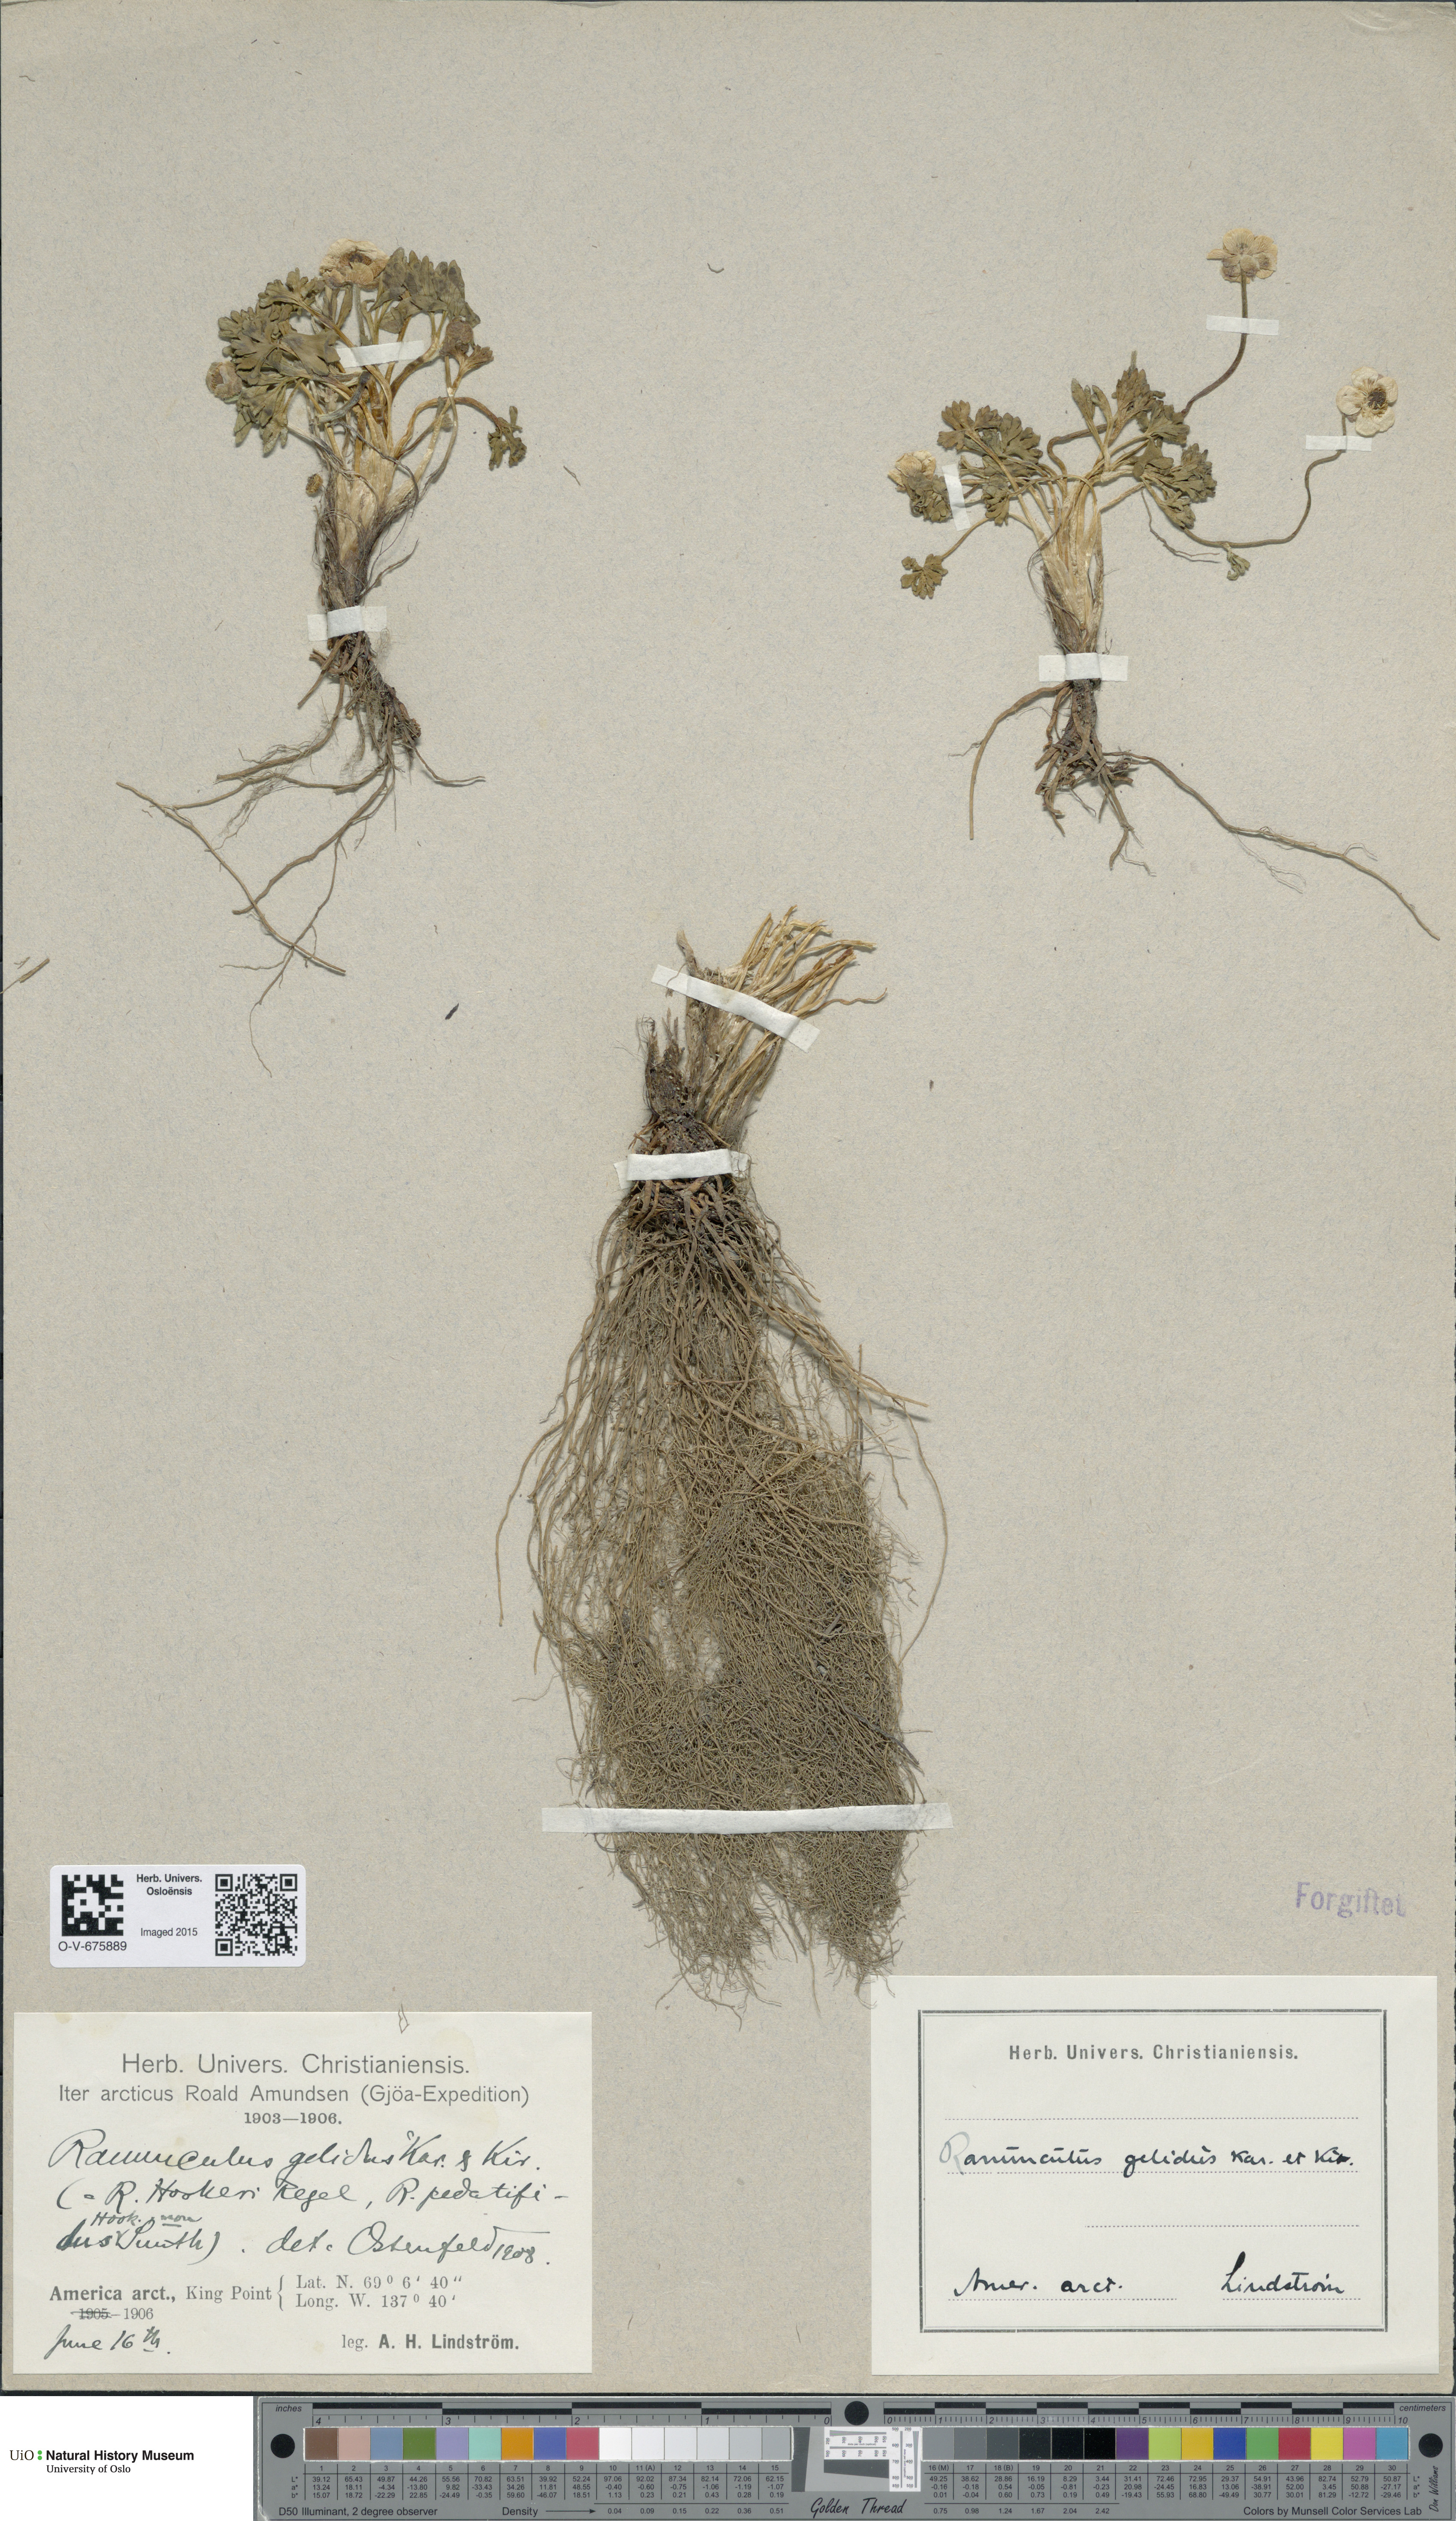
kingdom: Plantae
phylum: Tracheophyta
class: Magnoliopsida
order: Ranunculales
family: Ranunculaceae
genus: Ranunculus
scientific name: Ranunculus karelinii
